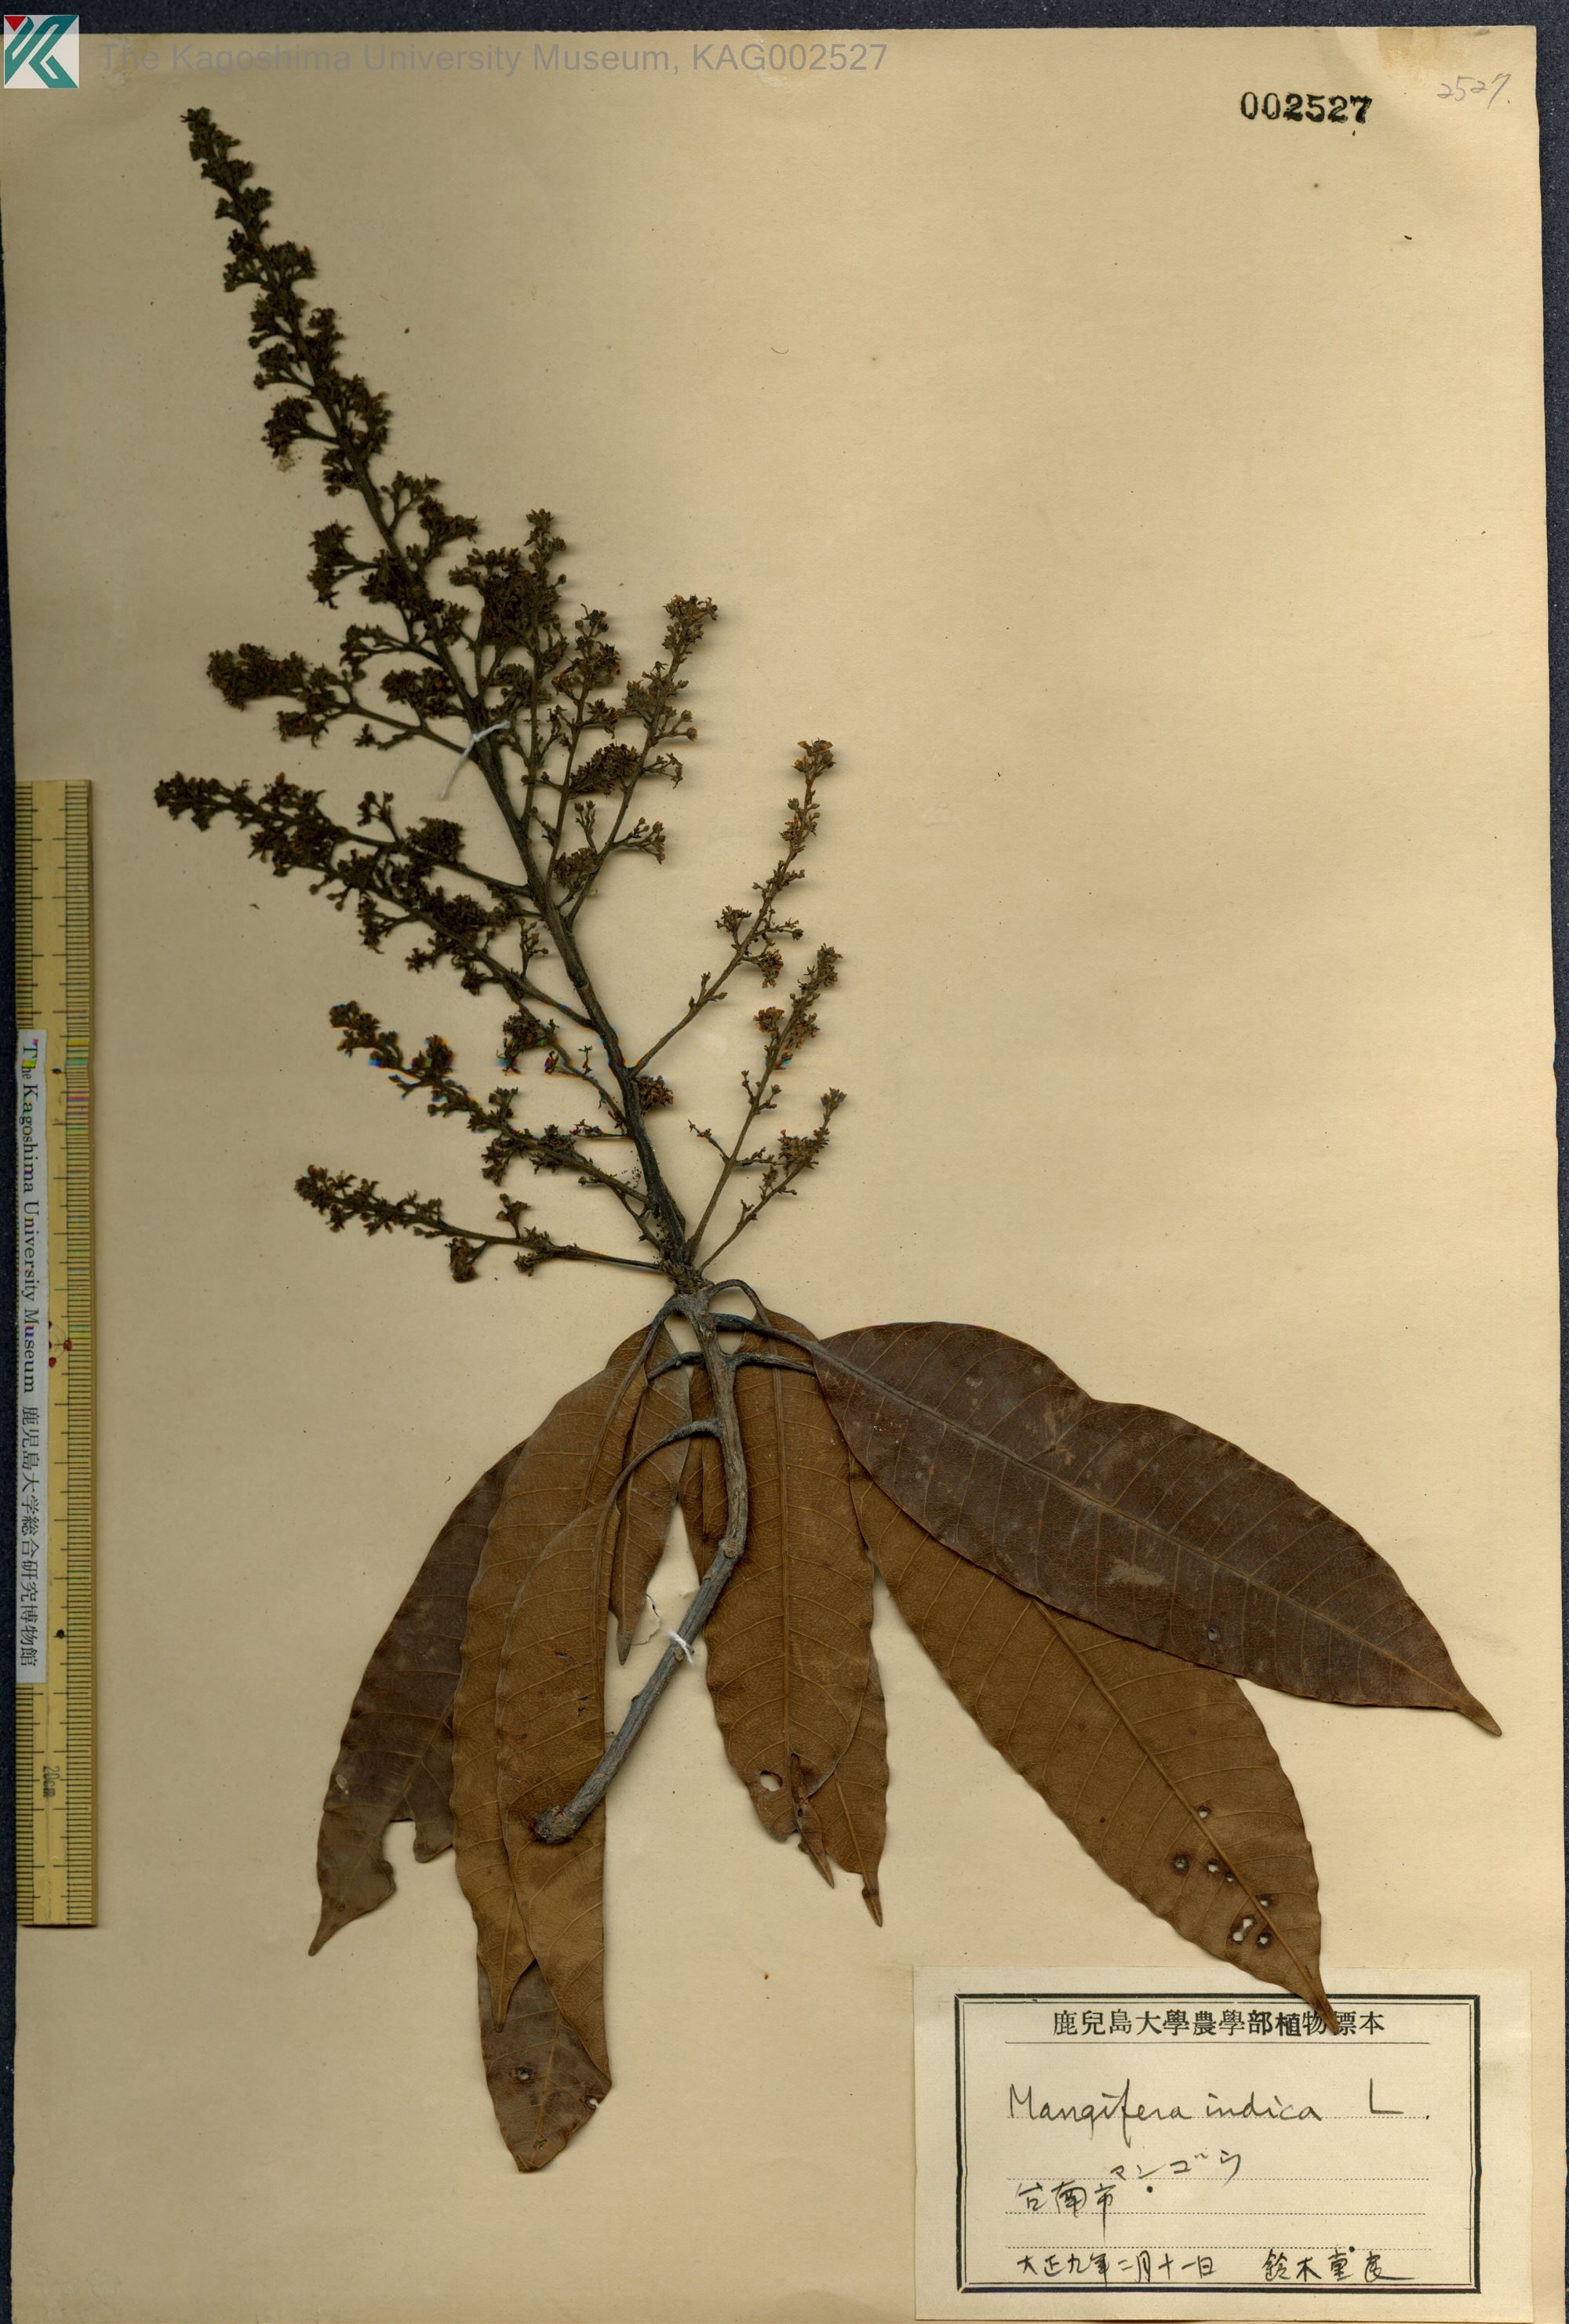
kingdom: Plantae
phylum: Tracheophyta
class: Magnoliopsida
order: Sapindales
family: Anacardiaceae
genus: Mangifera
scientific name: Mangifera indica
